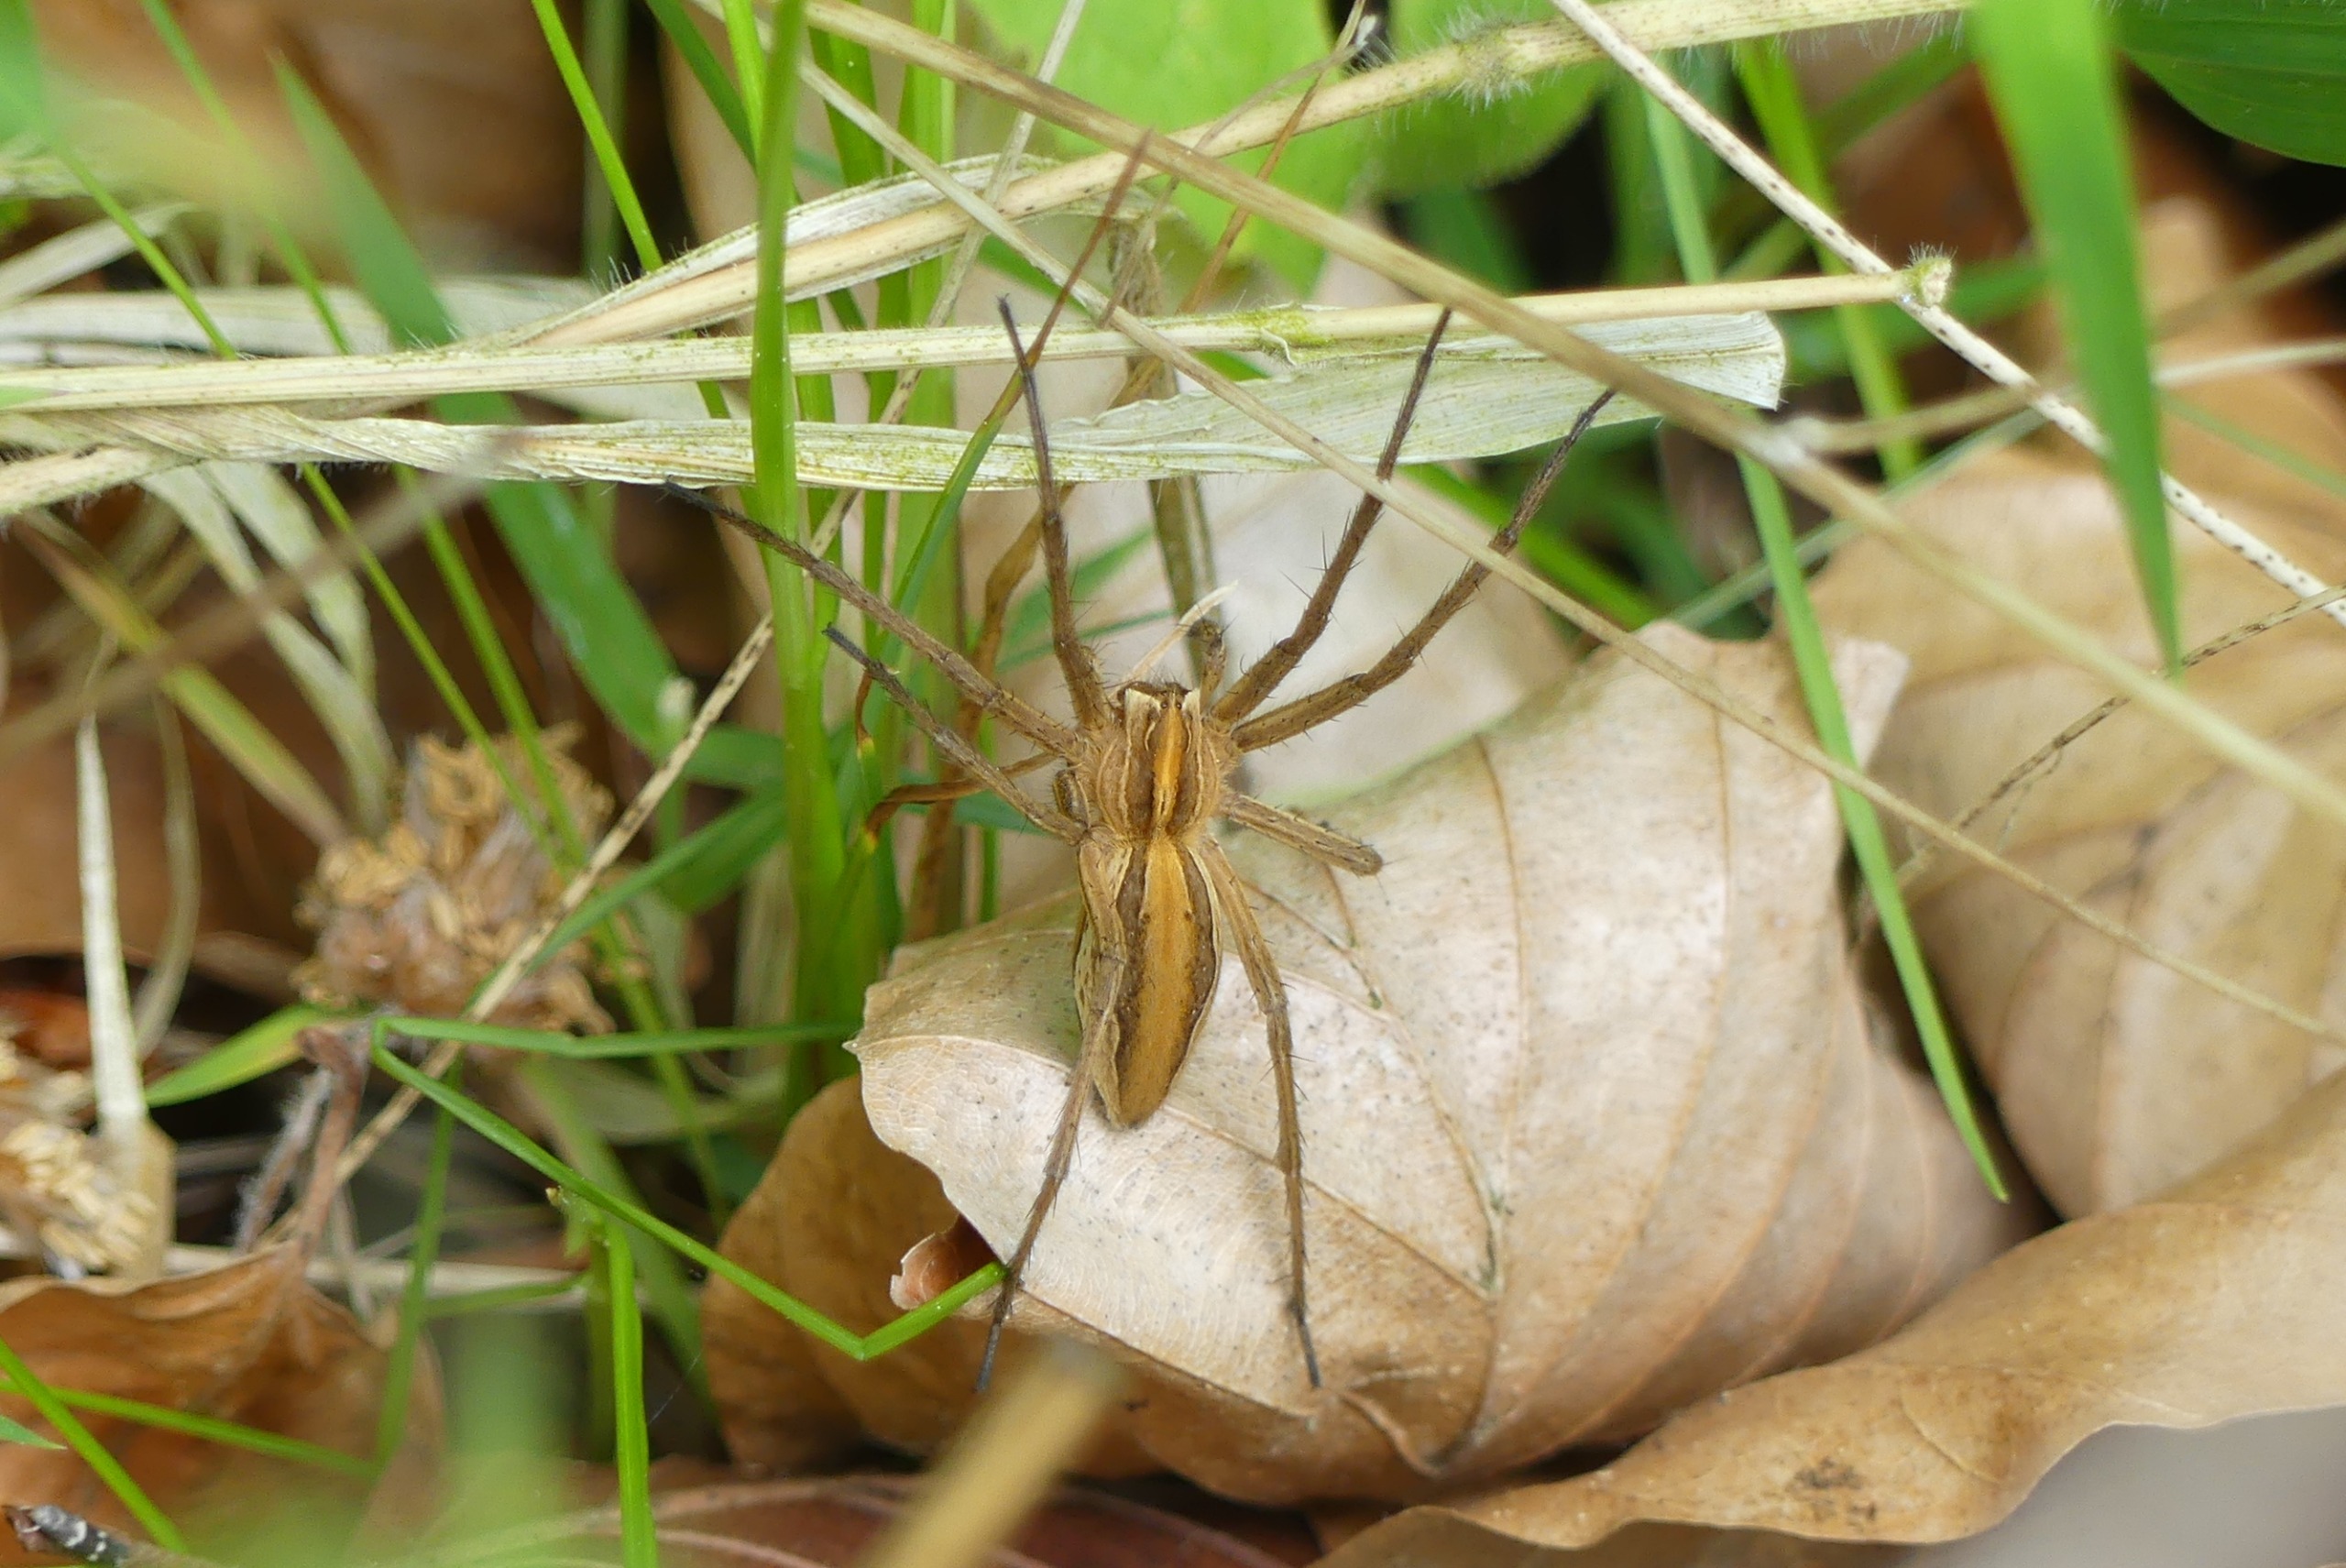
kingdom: Animalia
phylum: Arthropoda
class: Arachnida
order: Araneae
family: Pisauridae
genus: Pisaura
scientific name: Pisaura mirabilis
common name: Almindelig rovedderkop
